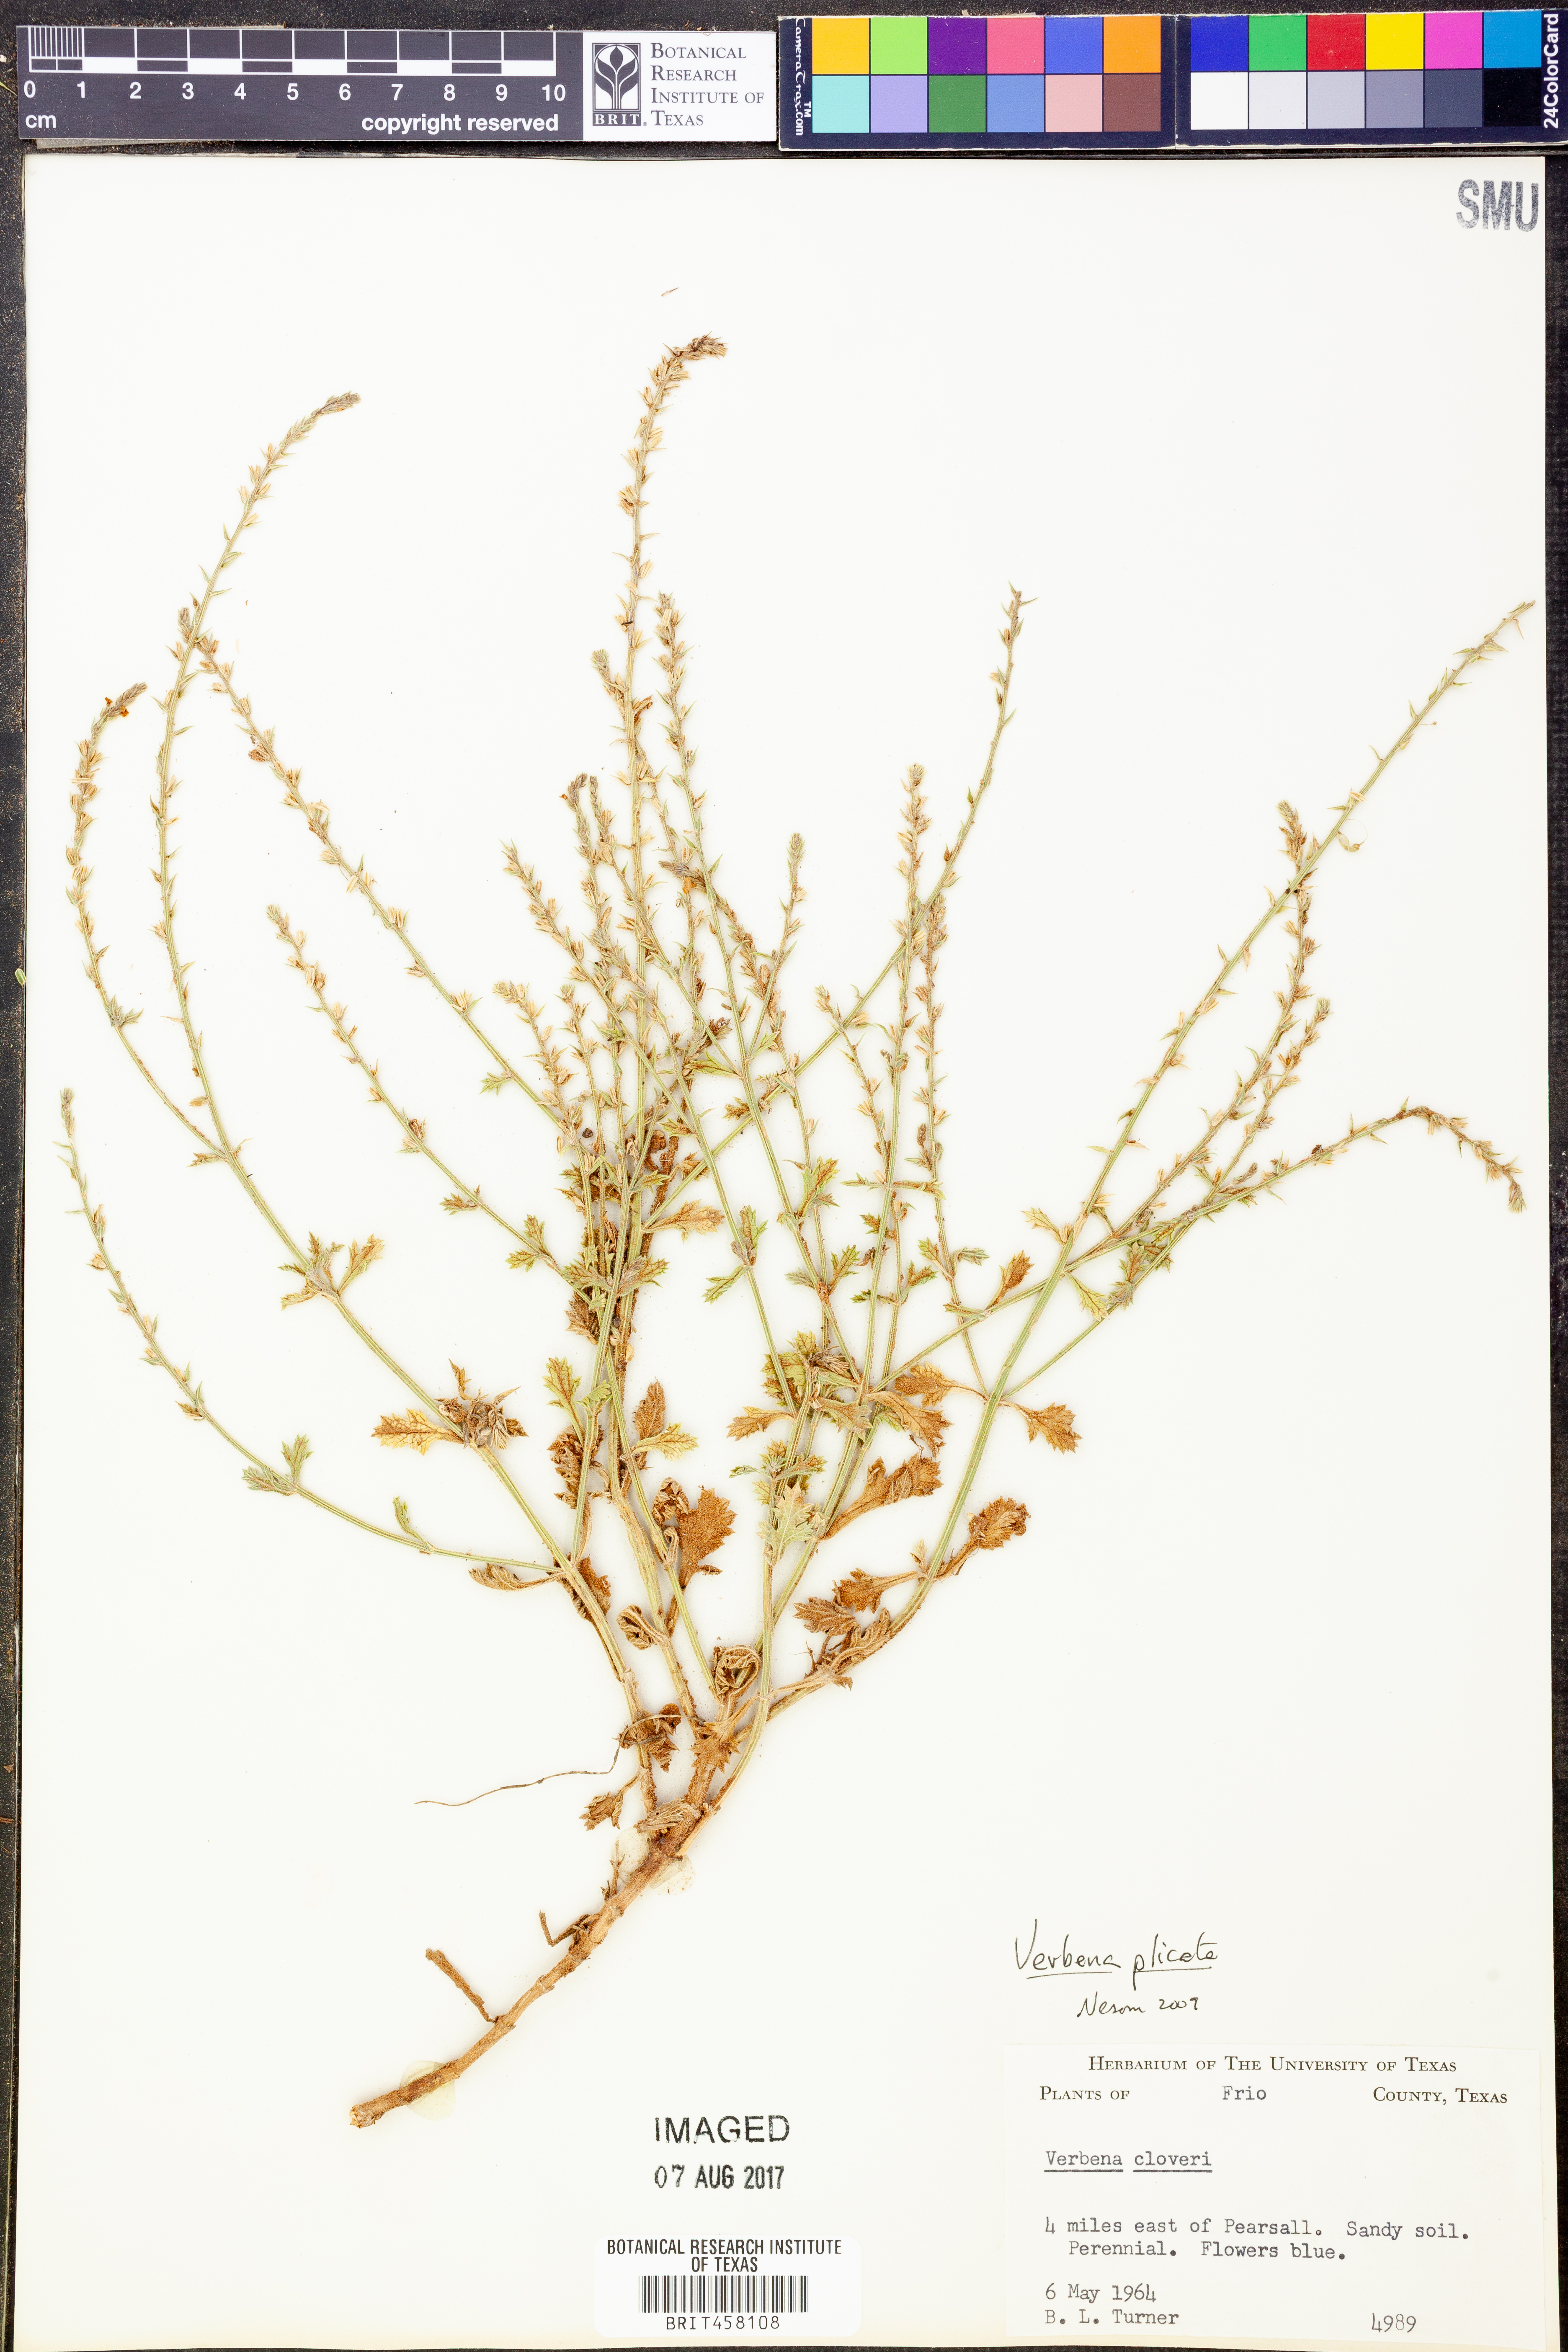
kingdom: Plantae
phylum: Tracheophyta
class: Magnoliopsida
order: Lamiales
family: Verbenaceae
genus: Verbena
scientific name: Verbena plicata
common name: Fan-leaf vervain
